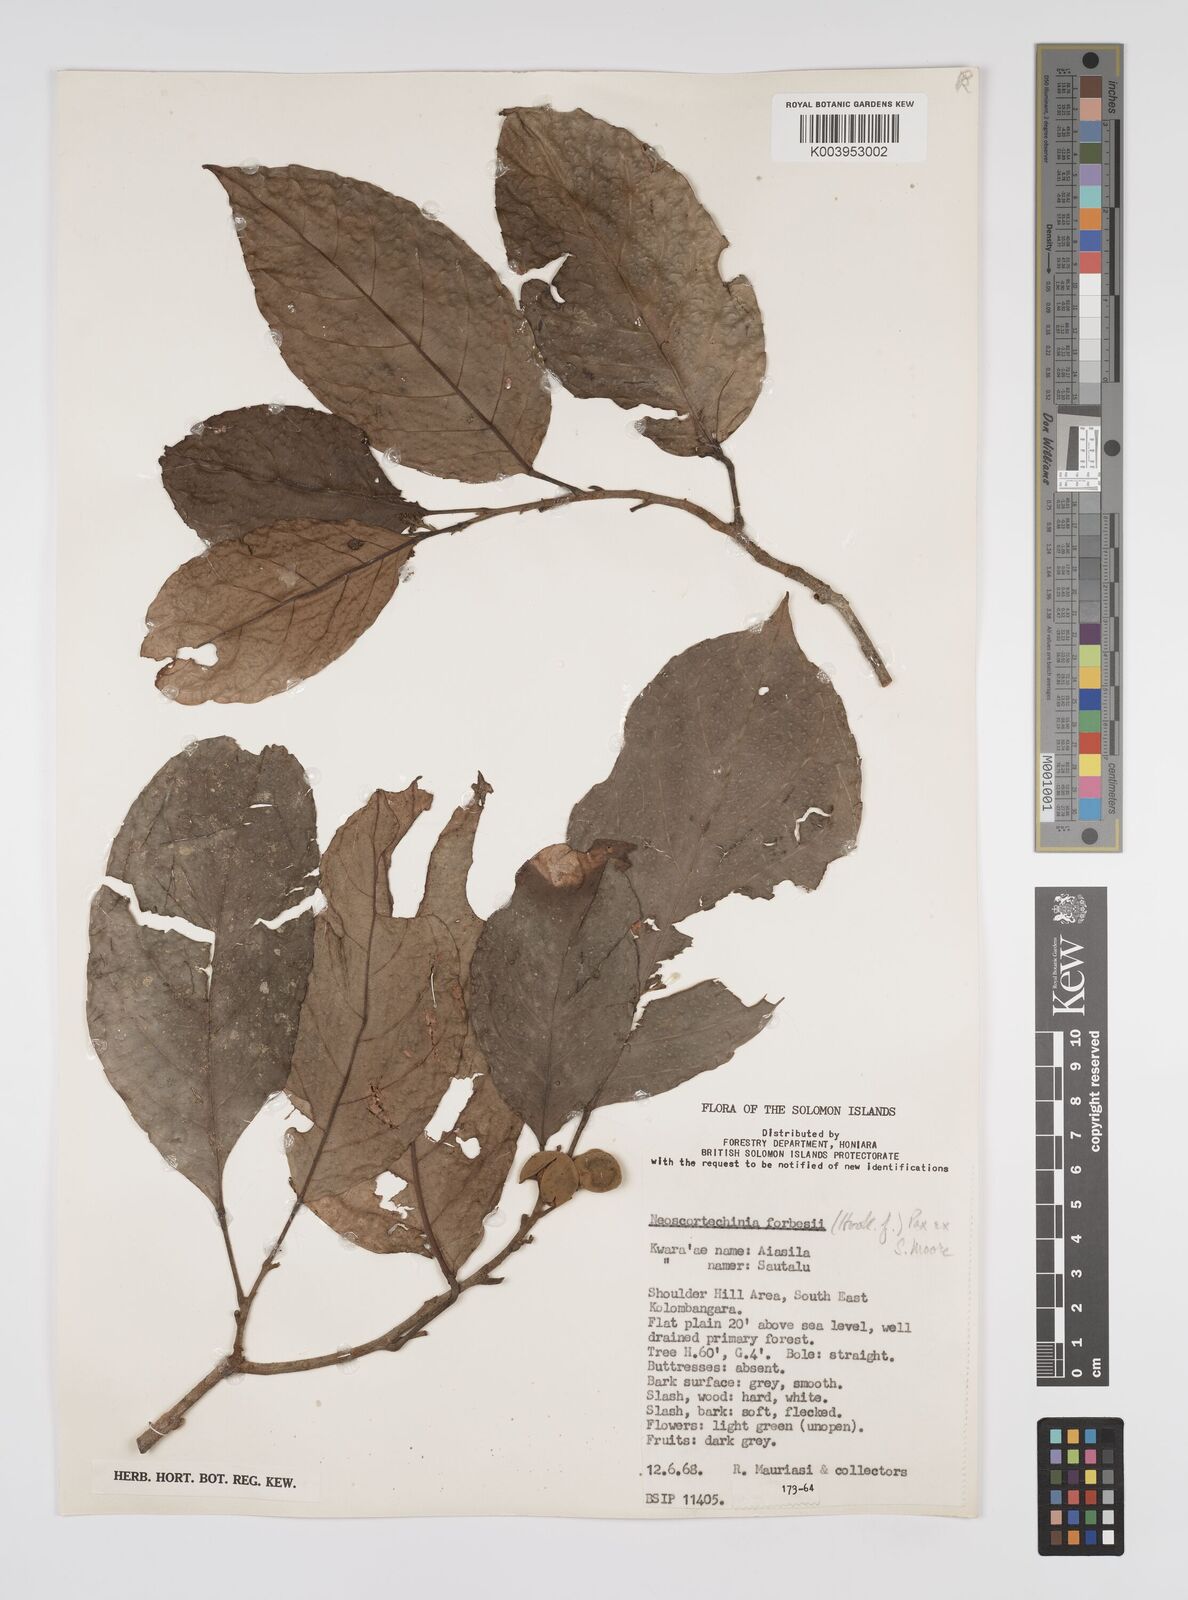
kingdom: Plantae
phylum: Tracheophyta
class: Magnoliopsida
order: Malpighiales
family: Euphorbiaceae
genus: Neoscortechinia
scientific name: Neoscortechinia forbesii
